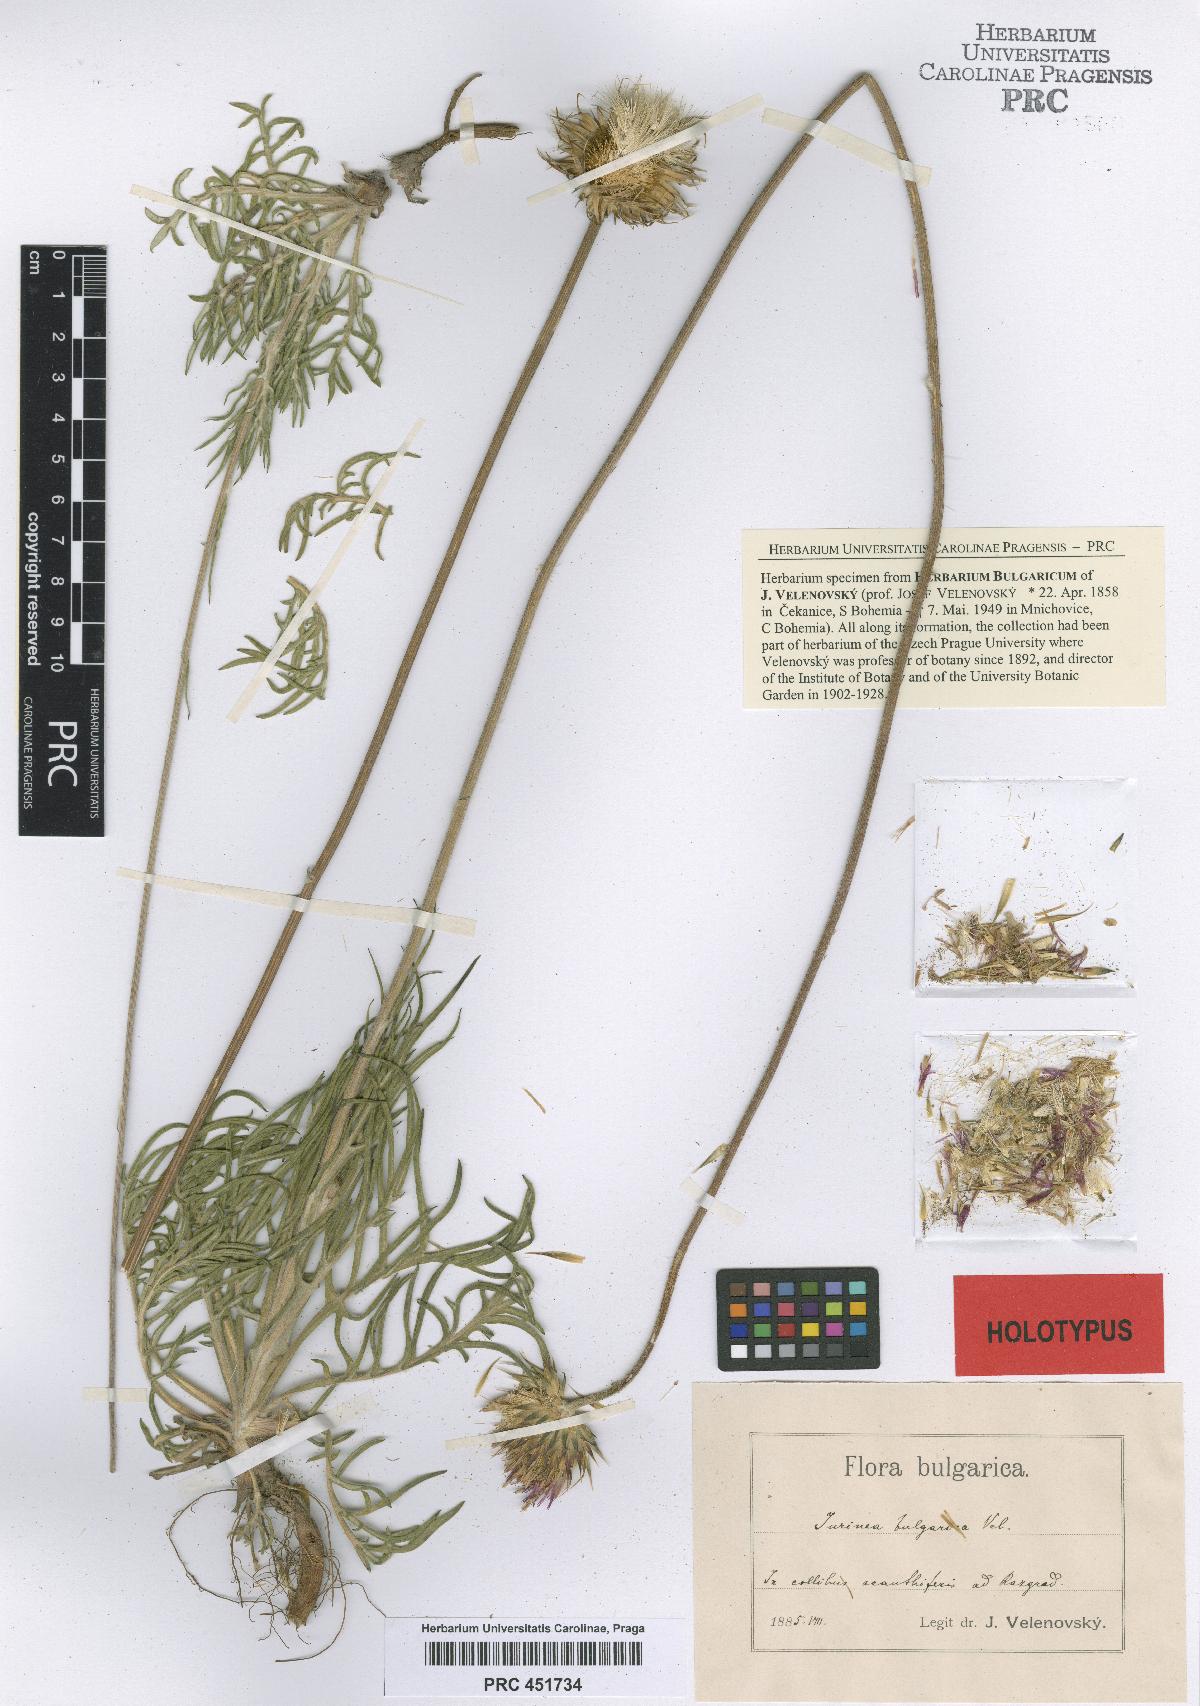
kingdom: Plantae
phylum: Tracheophyta
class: Magnoliopsida
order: Asterales
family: Asteraceae
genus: Jurinea
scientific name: Jurinea bulgarica
